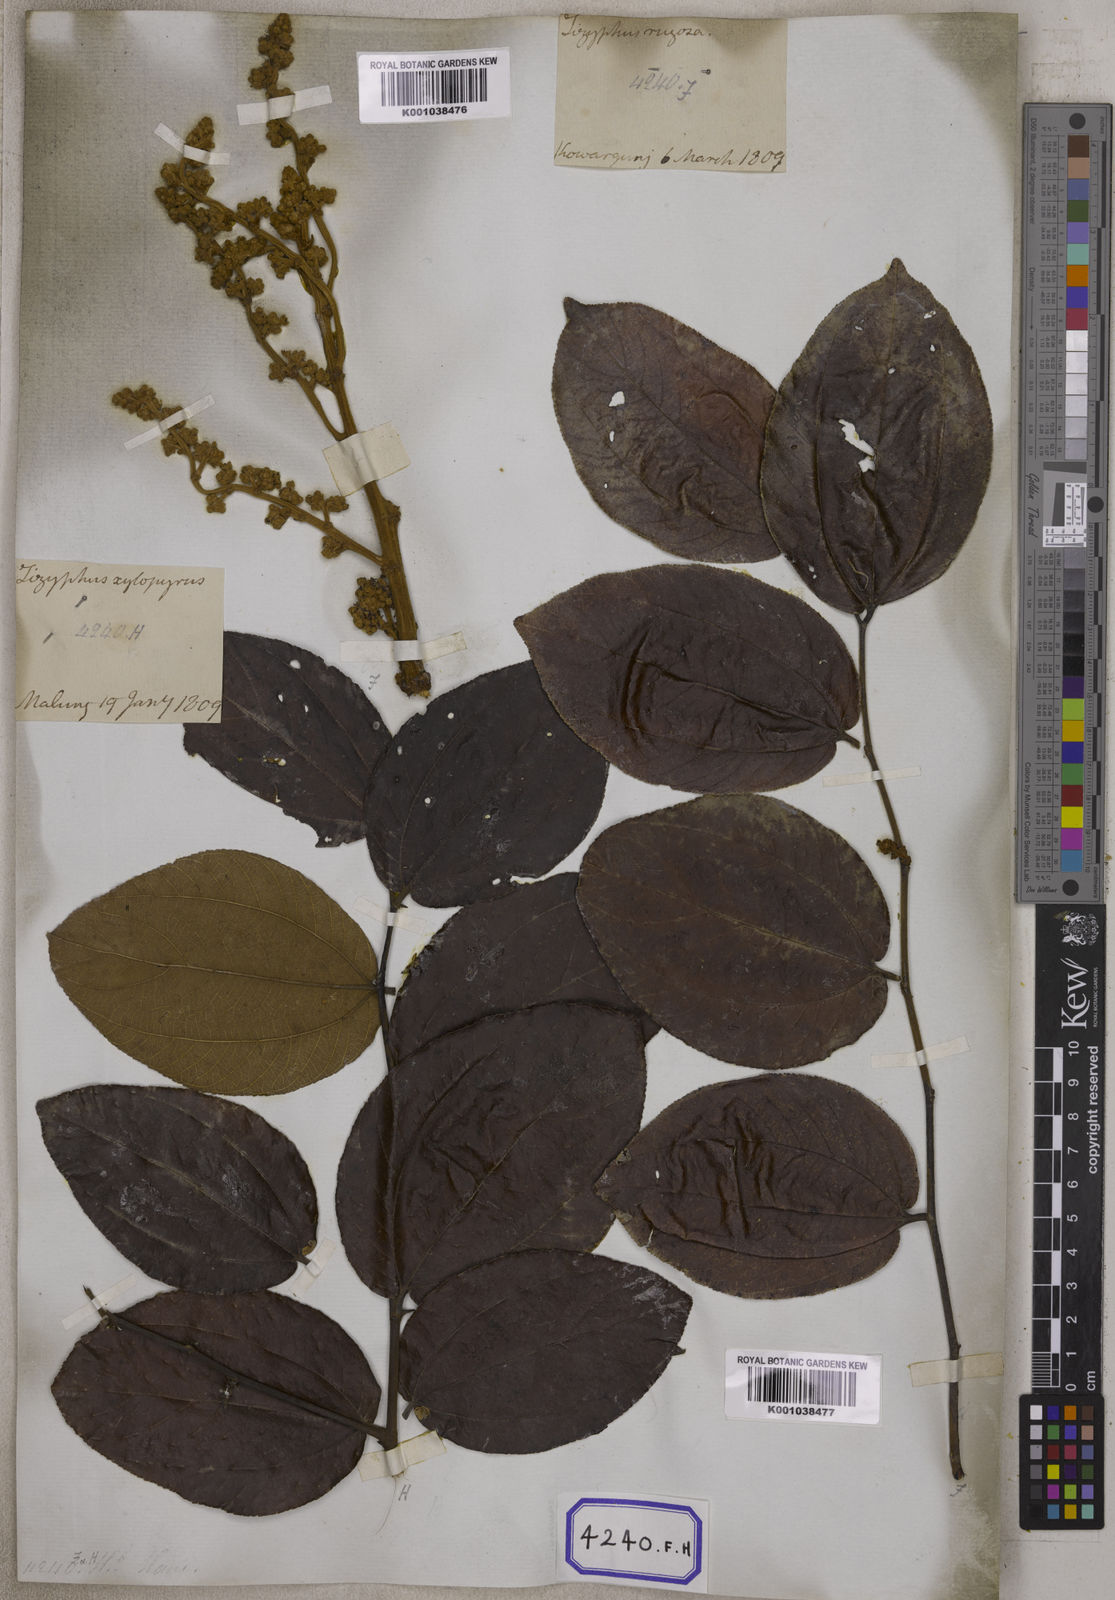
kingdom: Plantae
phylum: Tracheophyta
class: Magnoliopsida
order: Rosales
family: Rhamnaceae
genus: Ziziphus
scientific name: Ziziphus rugosa
